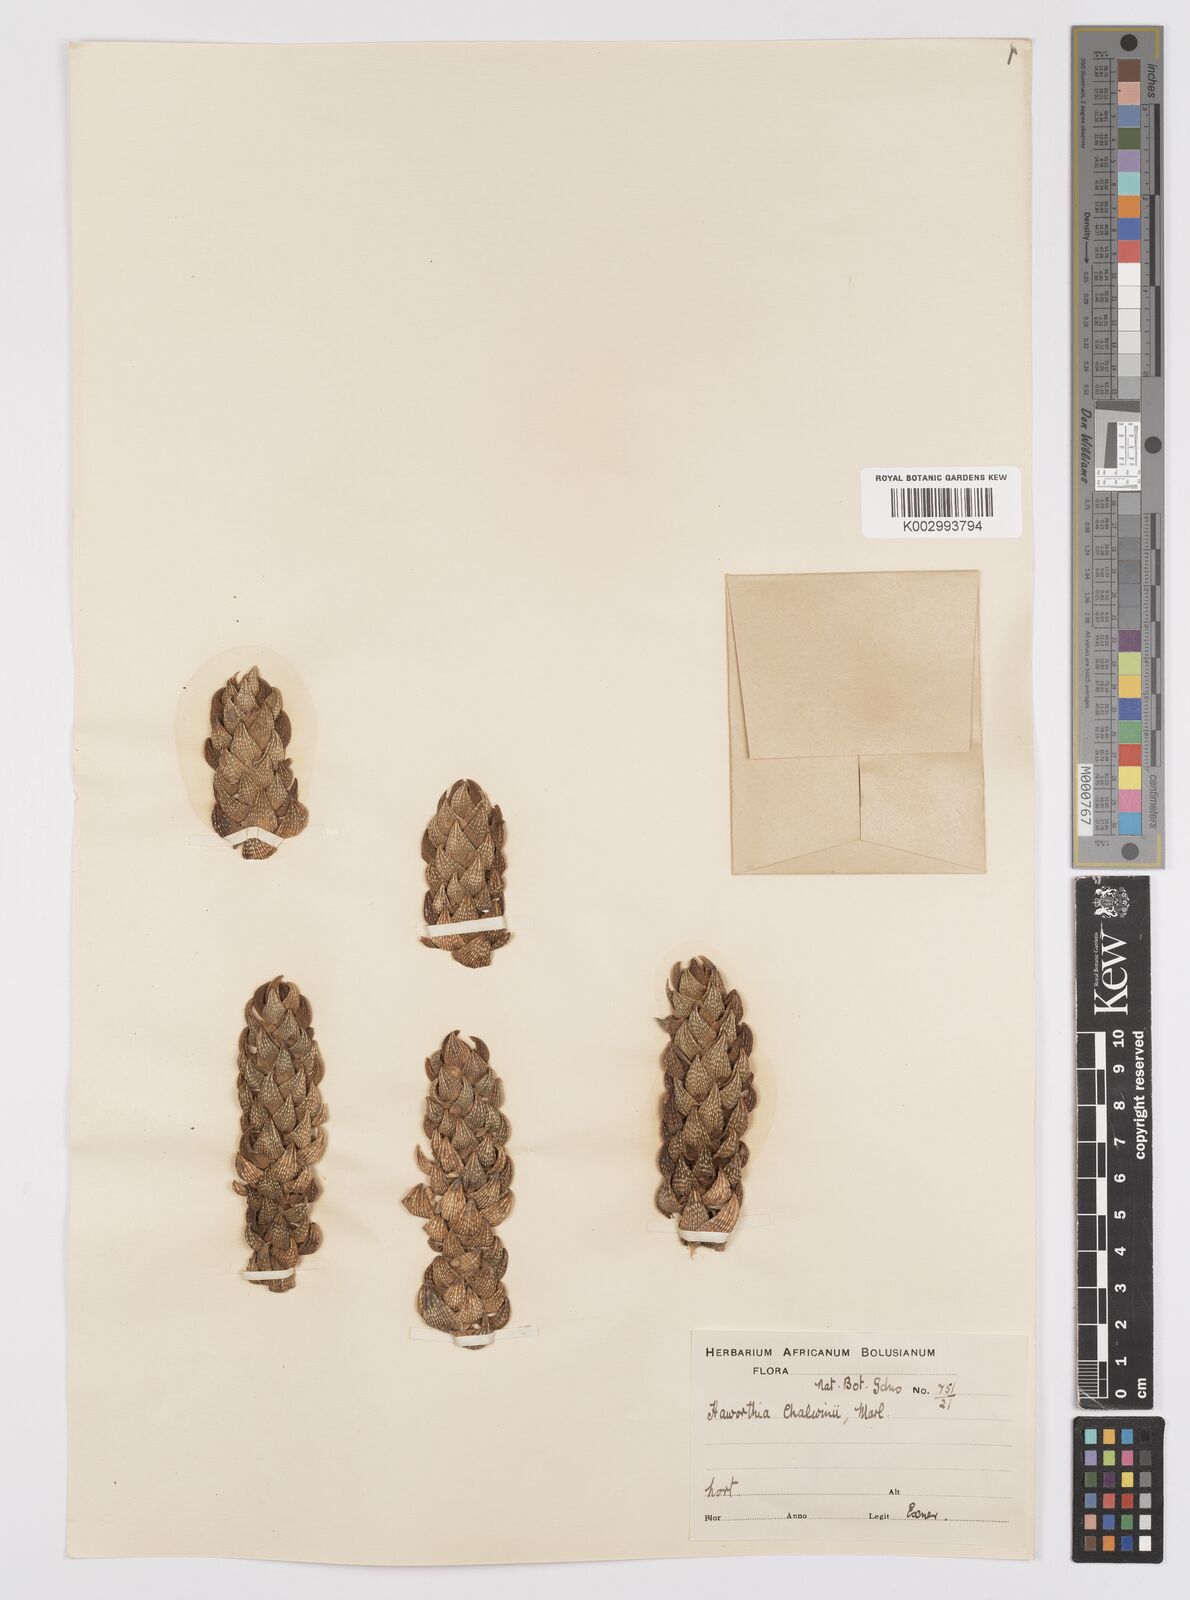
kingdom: Plantae
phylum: Tracheophyta
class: Liliopsida
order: Asparagales
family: Asphodelaceae
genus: Haworthiopsis
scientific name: Haworthiopsis coarctata
